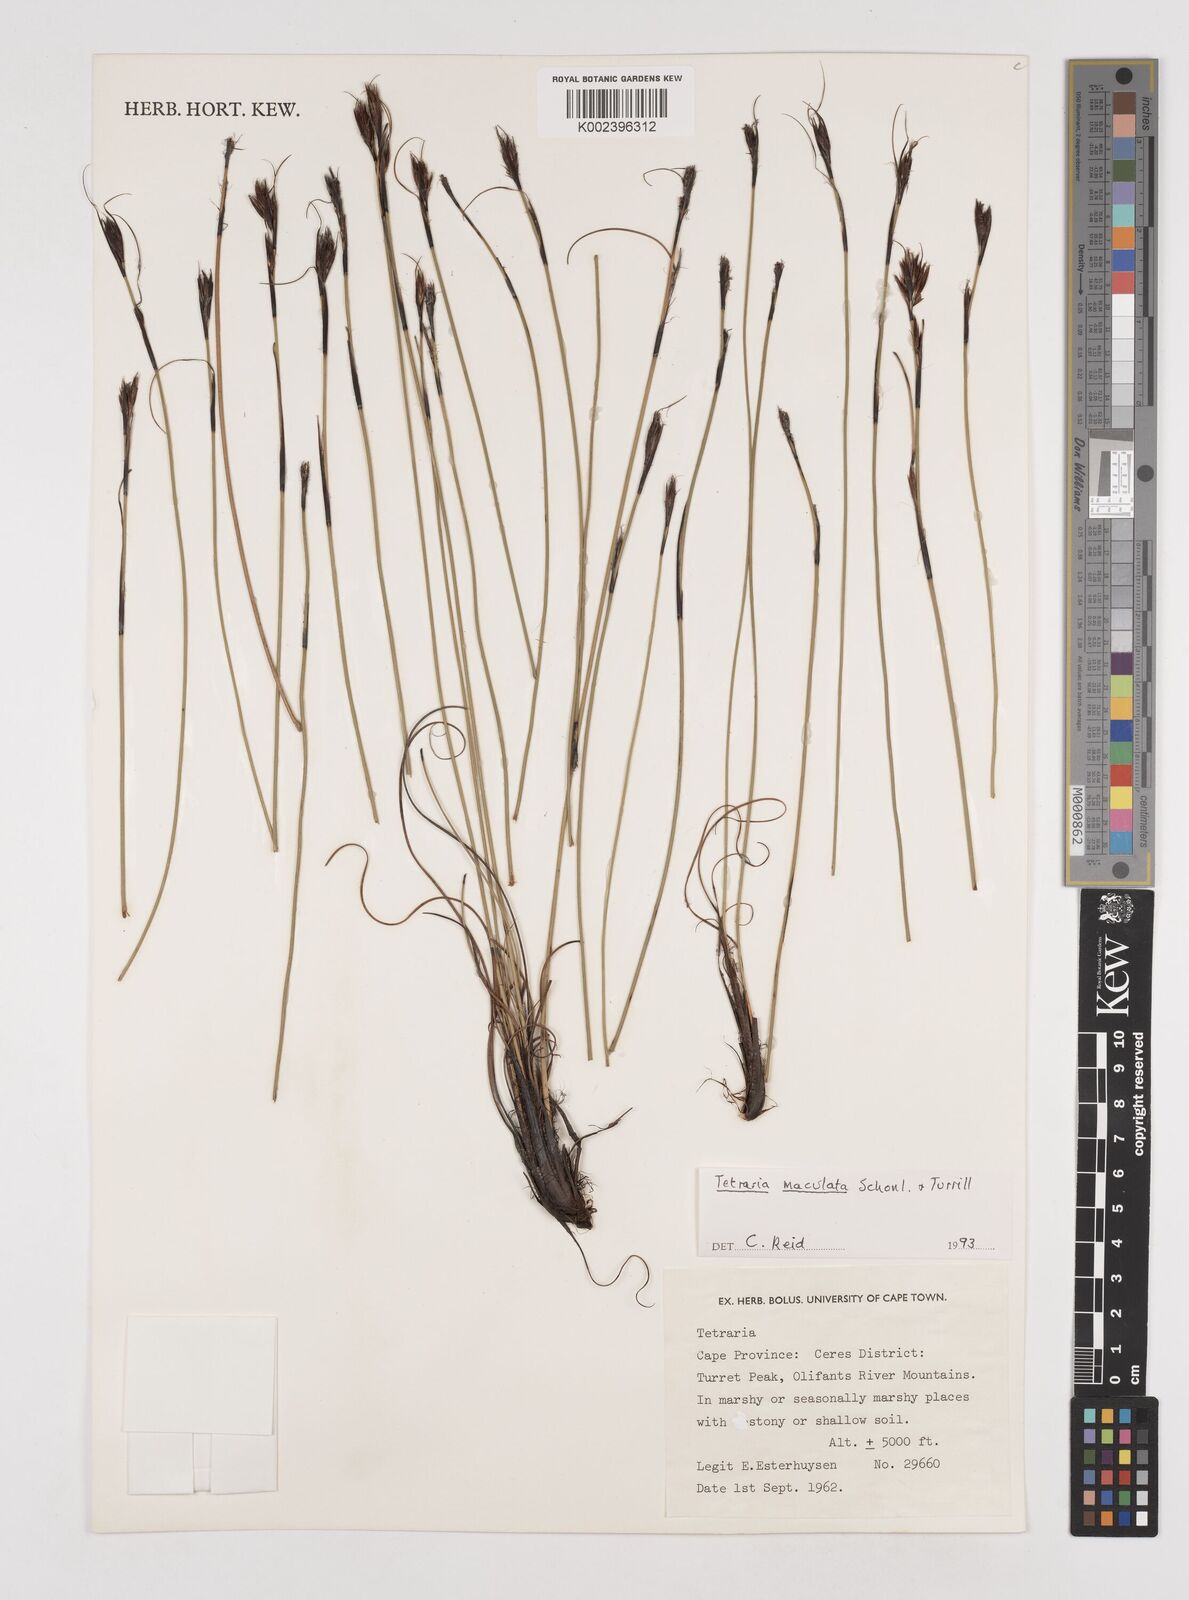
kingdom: Plantae
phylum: Tracheophyta
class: Liliopsida
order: Poales
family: Cyperaceae
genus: Tetraria
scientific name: Tetraria maculata
